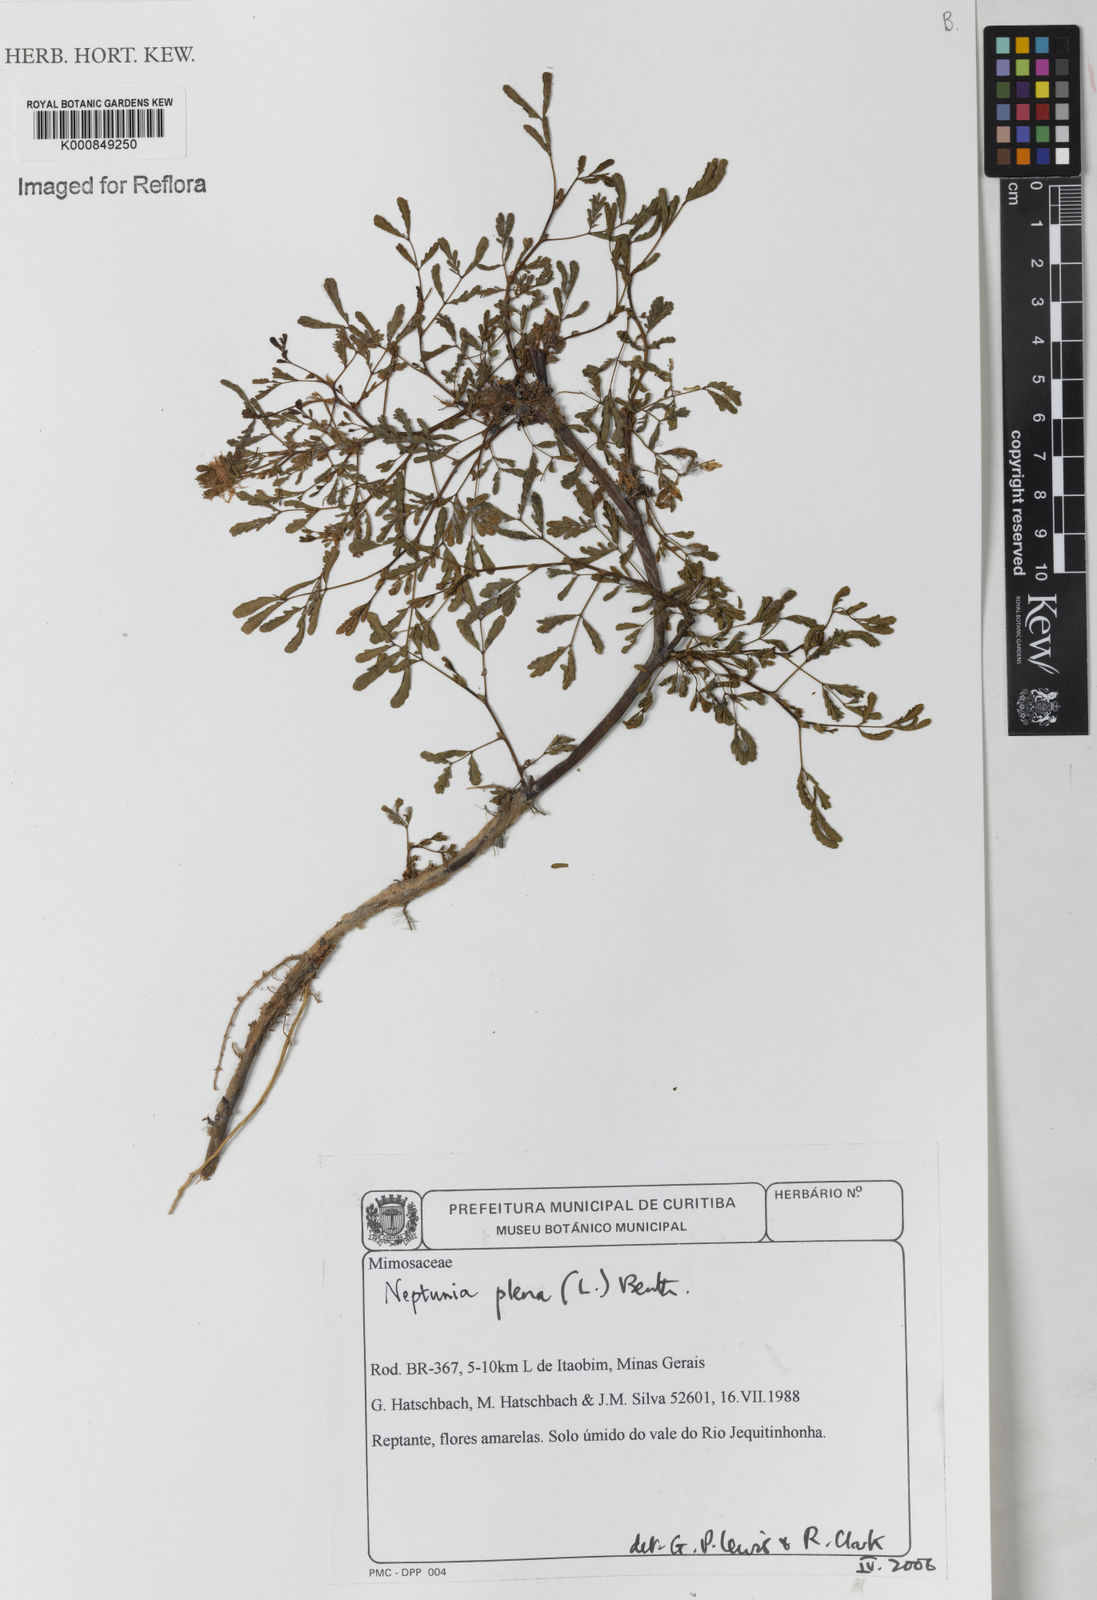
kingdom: Plantae
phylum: Tracheophyta
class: Magnoliopsida
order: Fabales
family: Fabaceae
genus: Neptunia
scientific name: Neptunia plena
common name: Dead and awake
